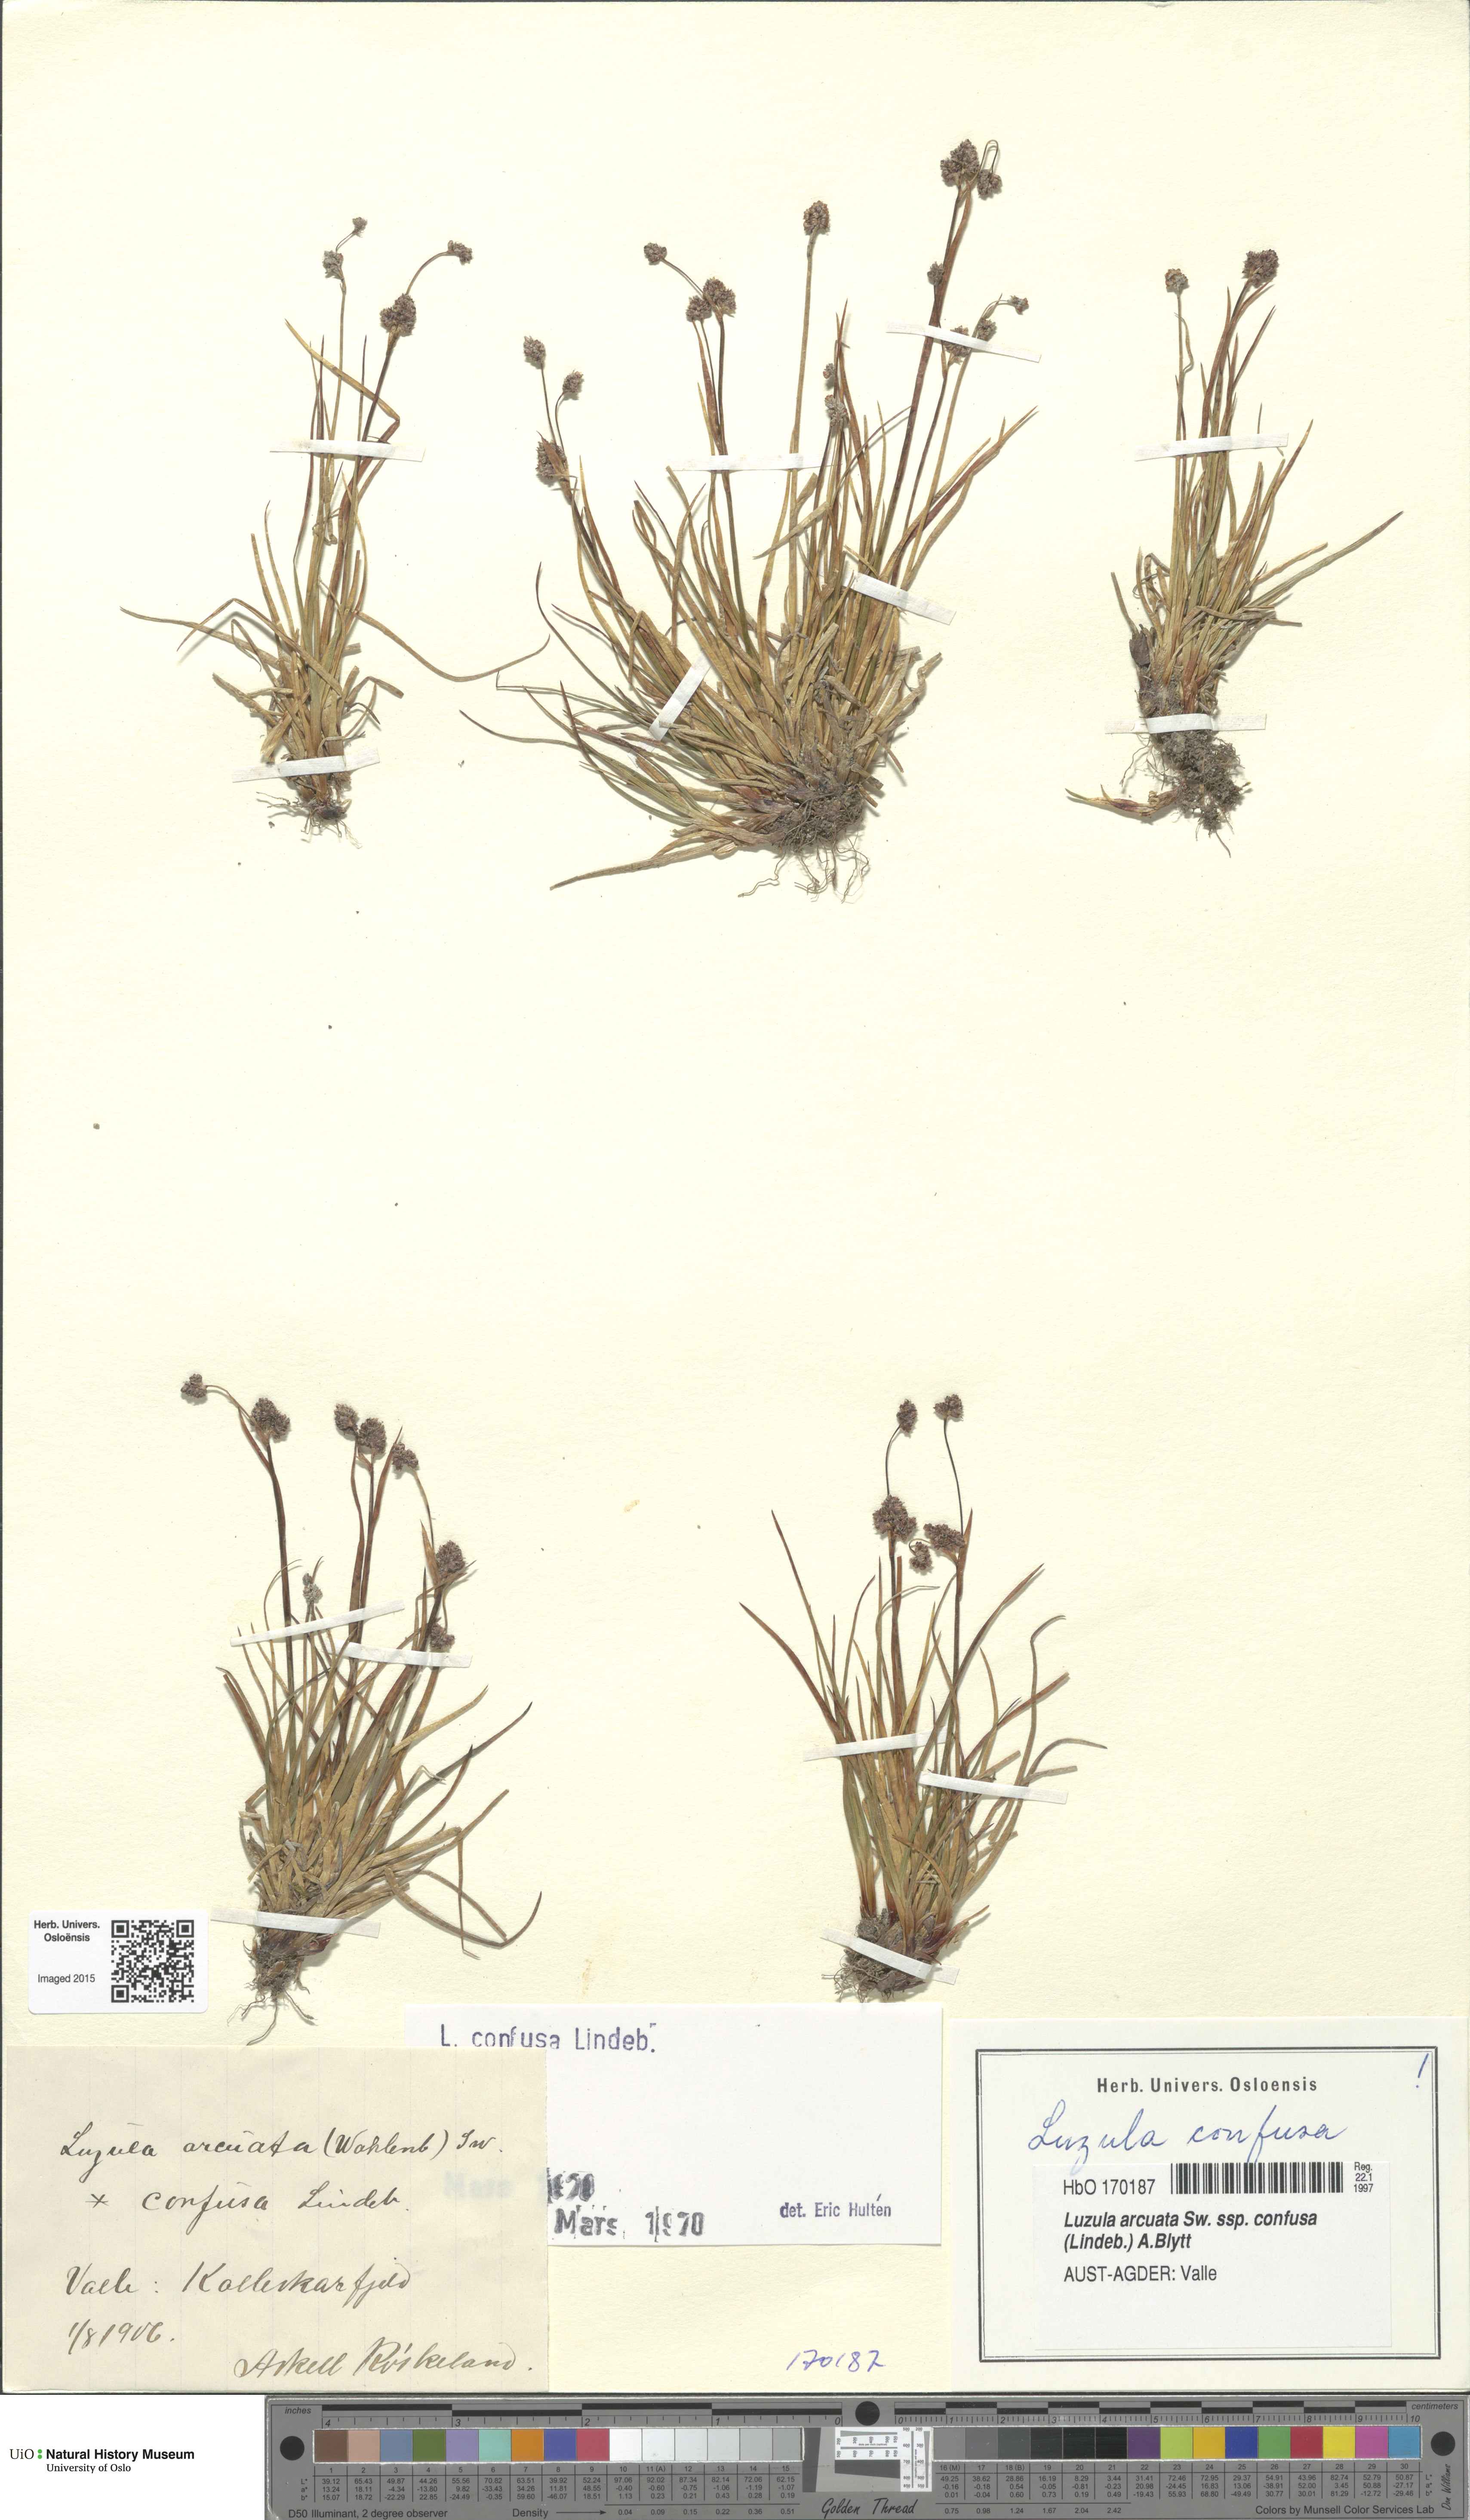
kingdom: Plantae
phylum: Tracheophyta
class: Liliopsida
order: Poales
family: Juncaceae
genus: Luzula
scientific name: Luzula confusa
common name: Northern wood rush
